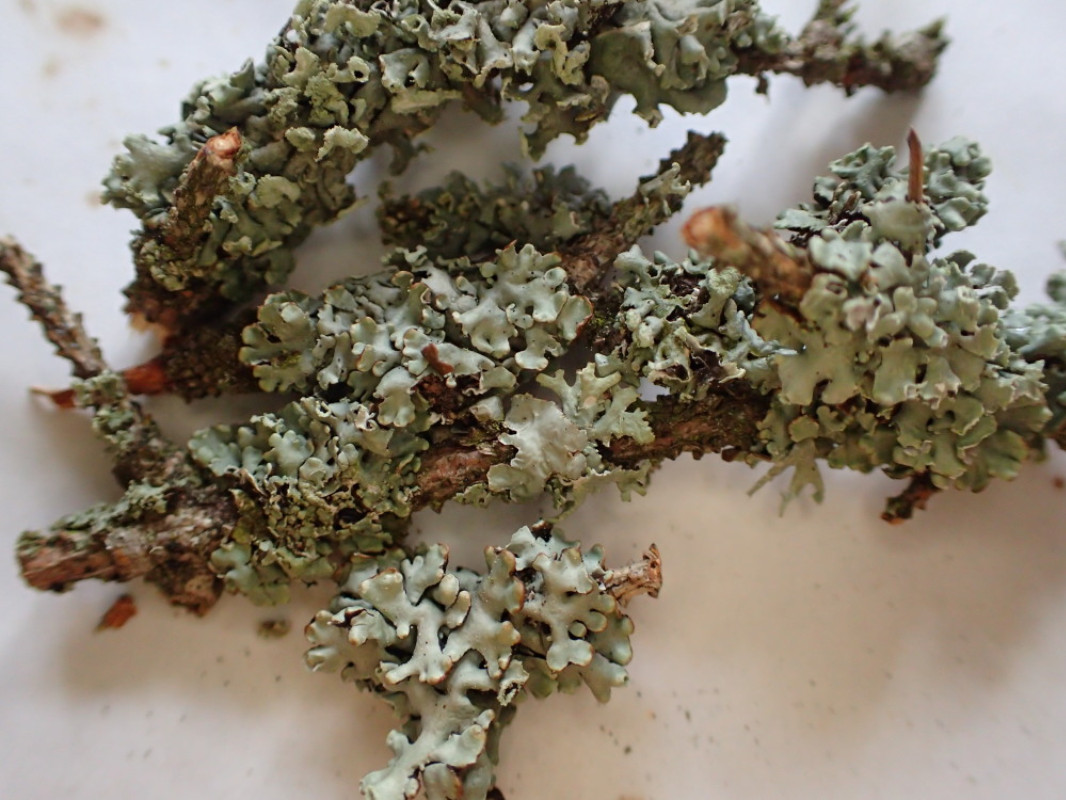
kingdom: Fungi
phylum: Ascomycota
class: Lecanoromycetes
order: Lecanorales
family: Parmeliaceae
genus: Hypogymnia
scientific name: Hypogymnia physodes
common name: almindelig kvistlav
